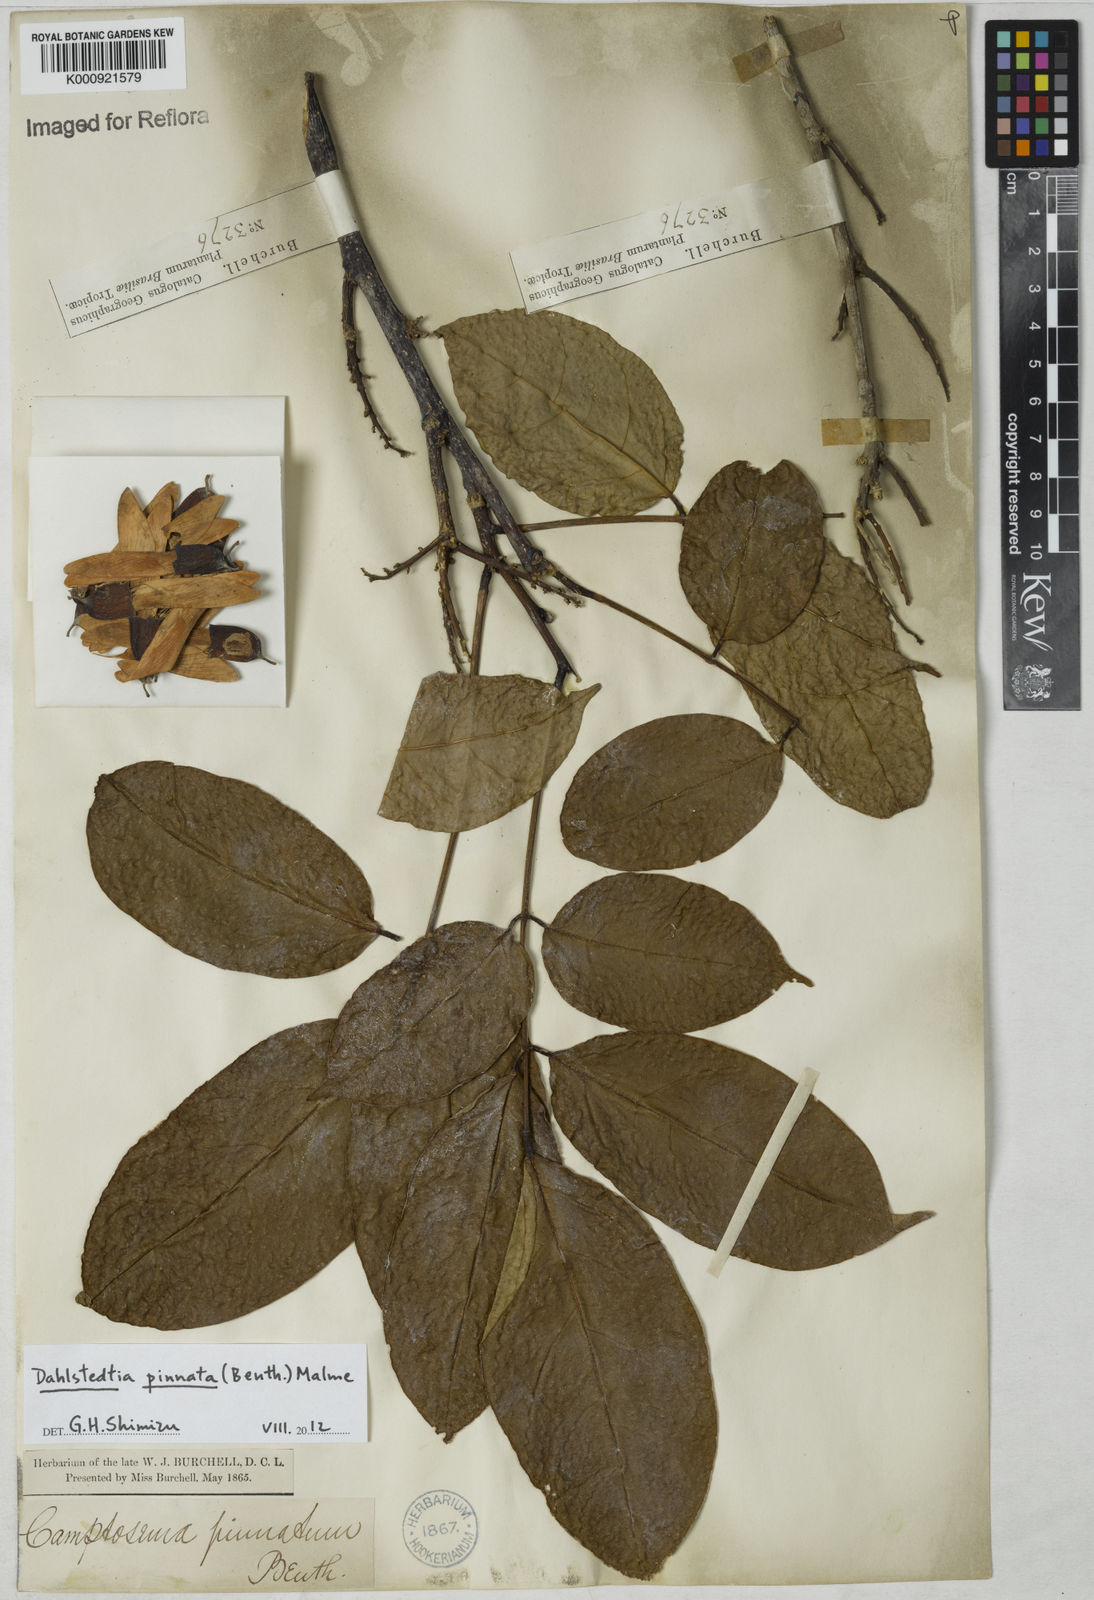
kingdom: Plantae
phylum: Tracheophyta
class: Magnoliopsida
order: Fabales
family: Fabaceae
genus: Dahlstedtia
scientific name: Dahlstedtia pinnata
